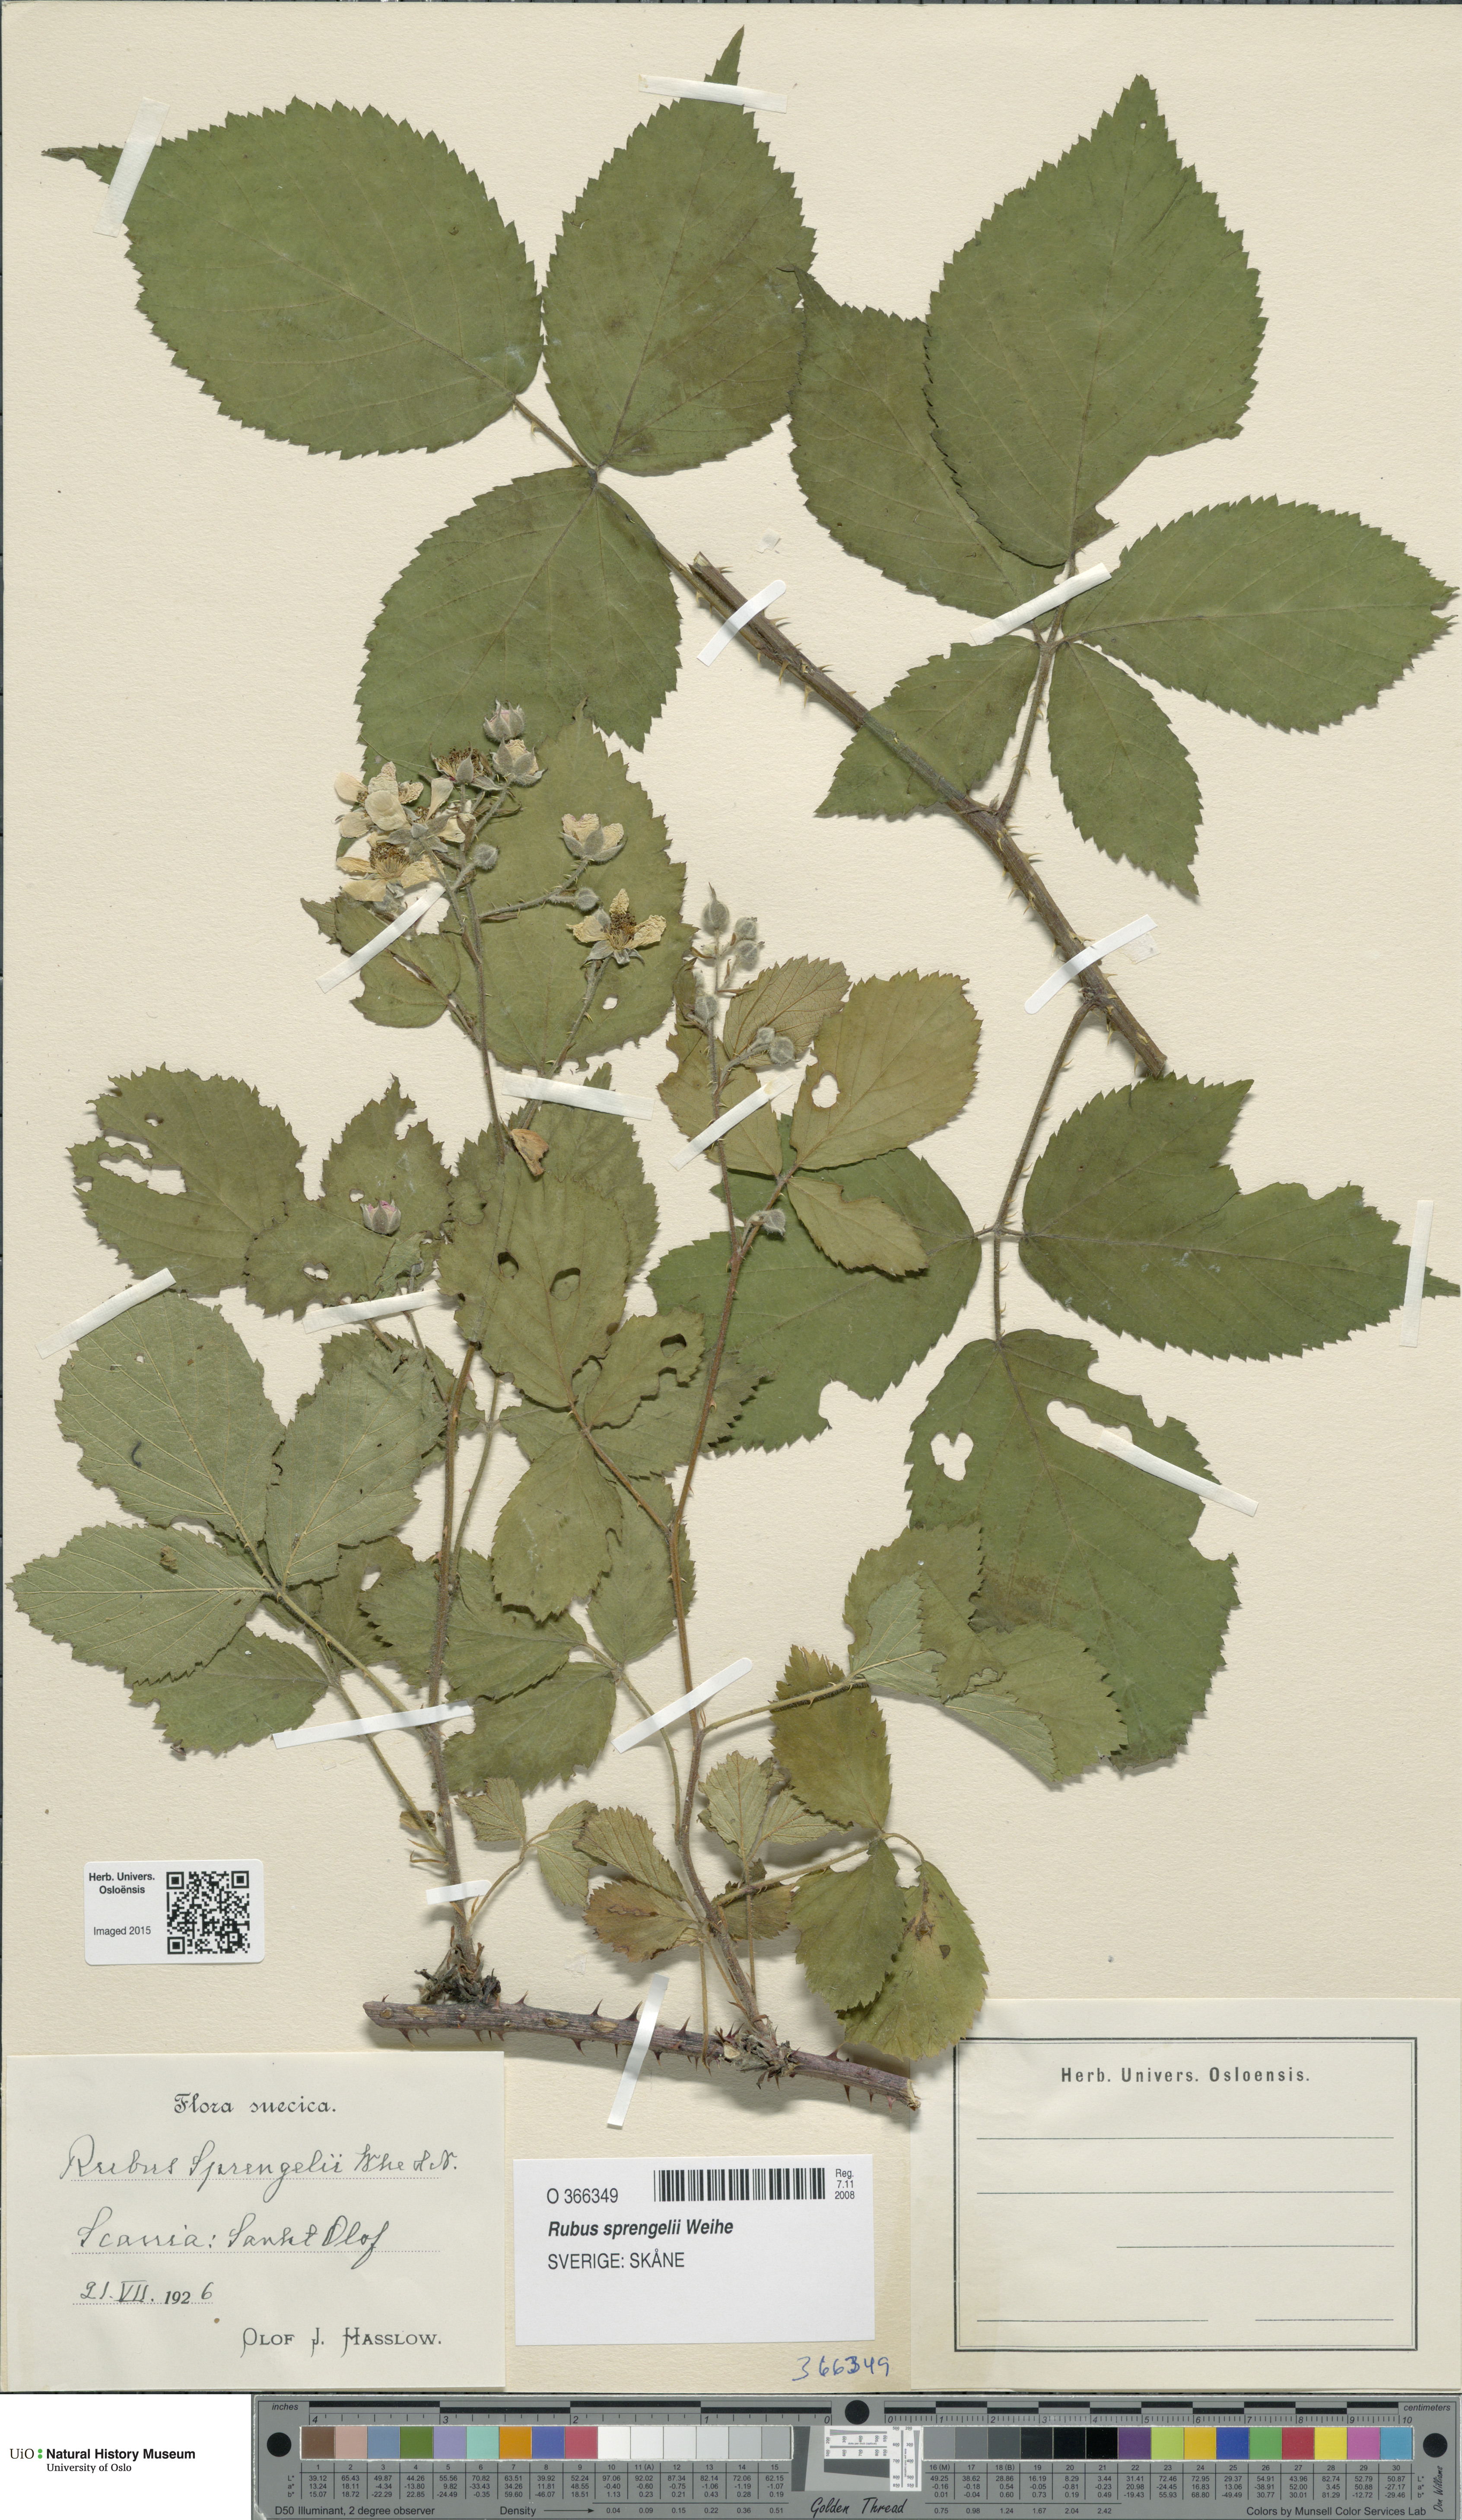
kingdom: Plantae
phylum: Tracheophyta
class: Magnoliopsida
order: Rosales
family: Rosaceae
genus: Rubus
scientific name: Rubus sprengelii
